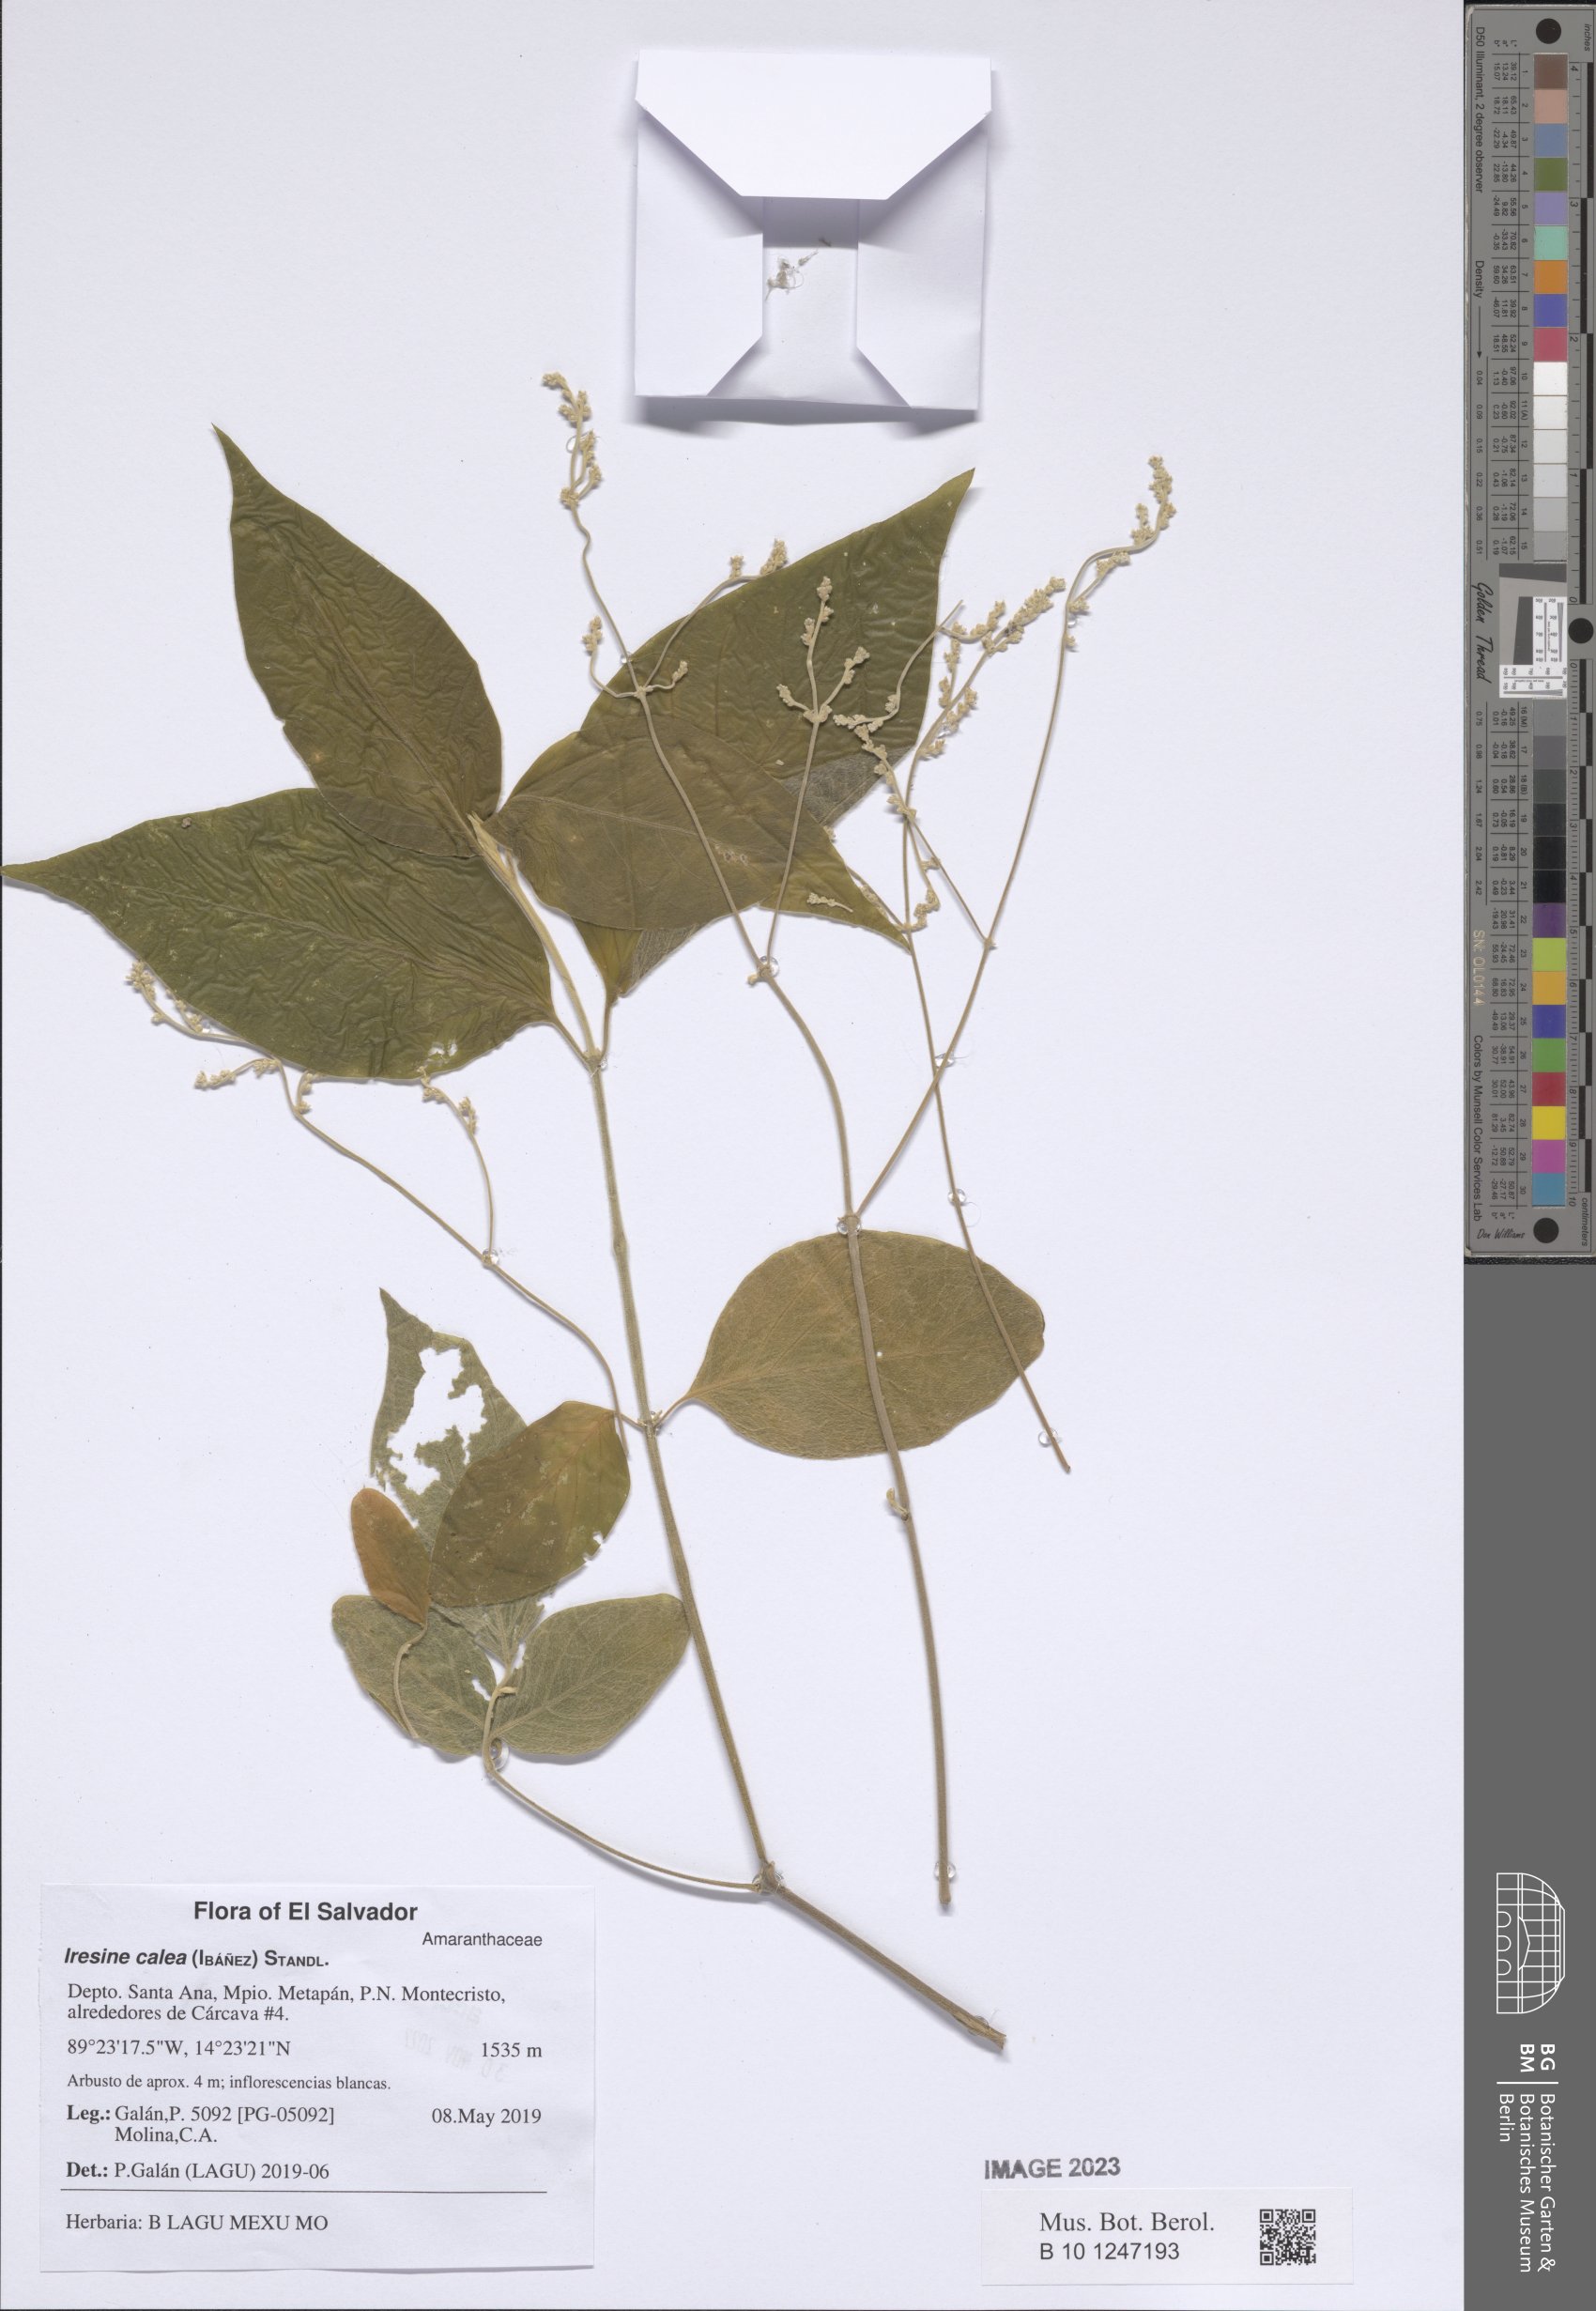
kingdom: Plantae
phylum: Tracheophyta
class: Magnoliopsida
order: Caryophyllales
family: Amaranthaceae
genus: Iresine
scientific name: Iresine latifolia
